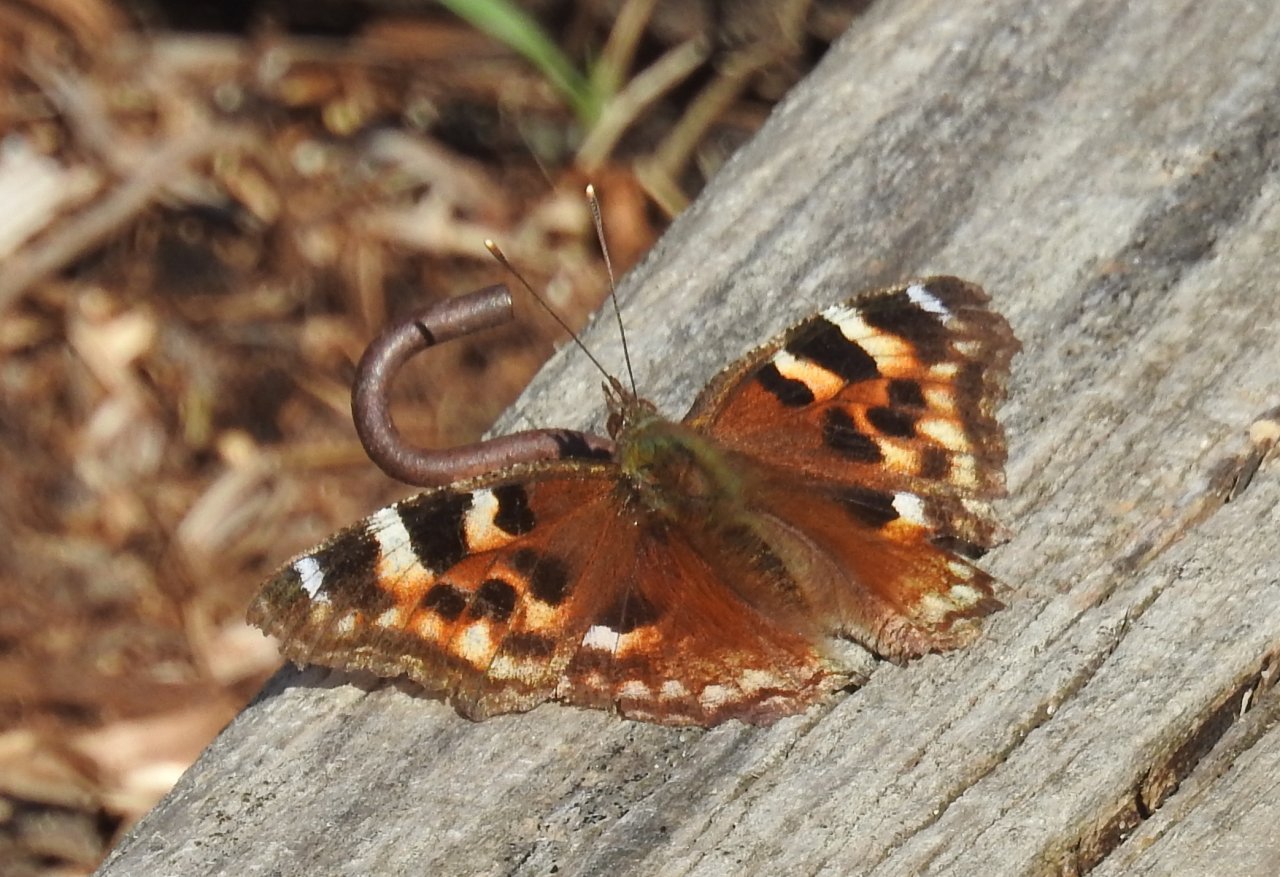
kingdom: Animalia
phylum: Arthropoda
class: Insecta
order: Lepidoptera
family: Nymphalidae
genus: Polygonia
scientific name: Polygonia vaualbum
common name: Compton Tortoiseshell
